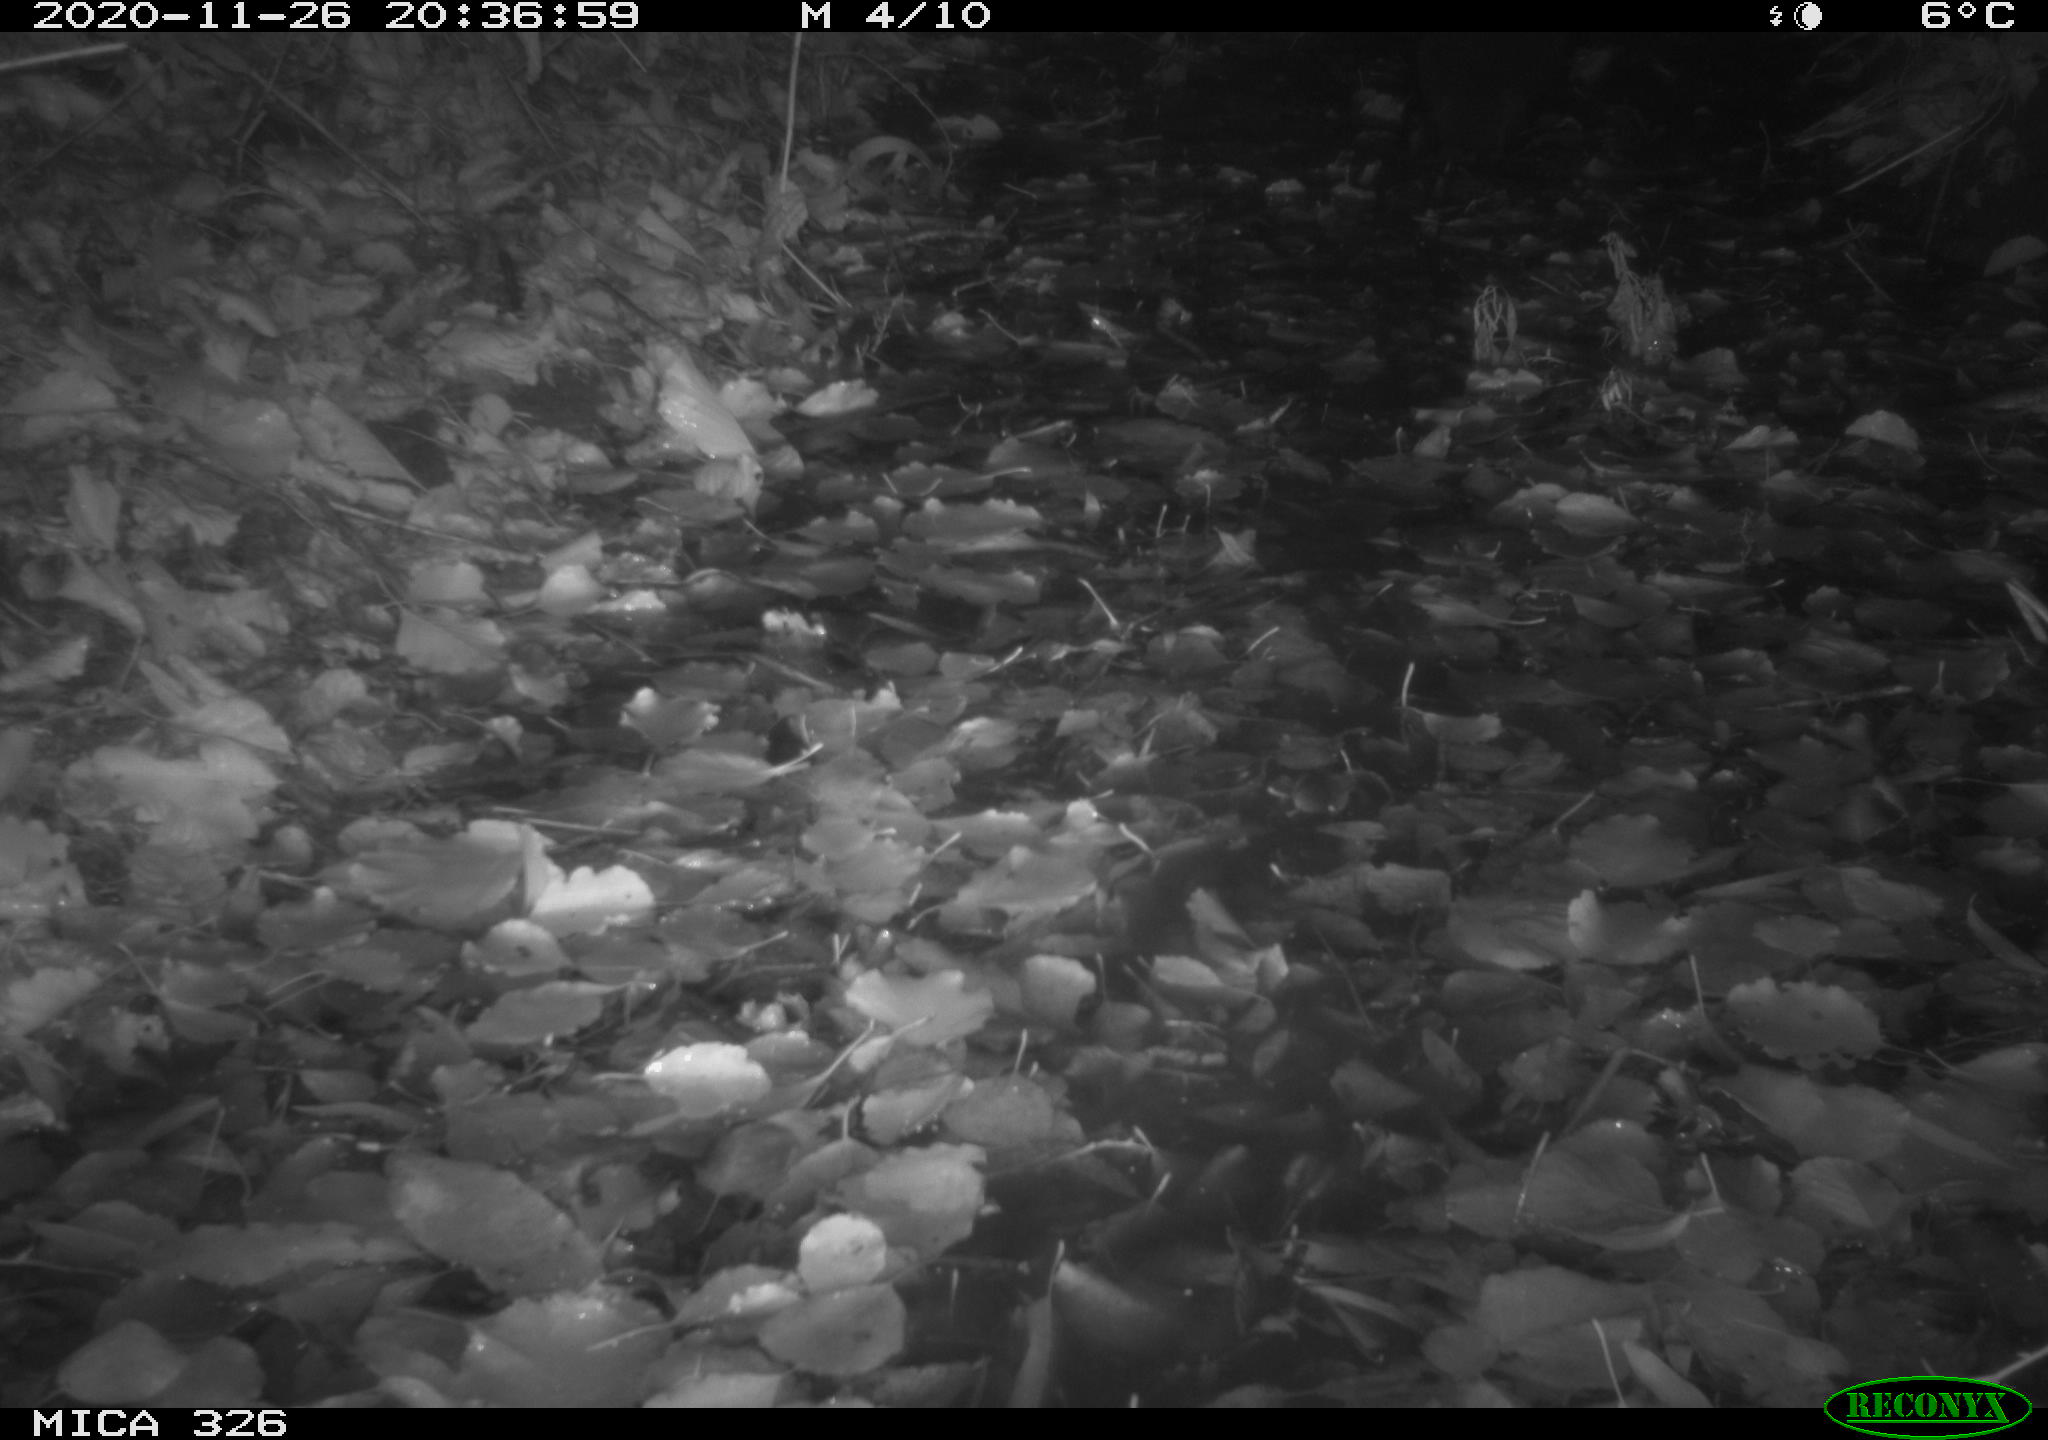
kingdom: Animalia
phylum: Chordata
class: Mammalia
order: Carnivora
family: Mustelidae
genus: Lutra
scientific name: Lutra lutra
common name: European otter
